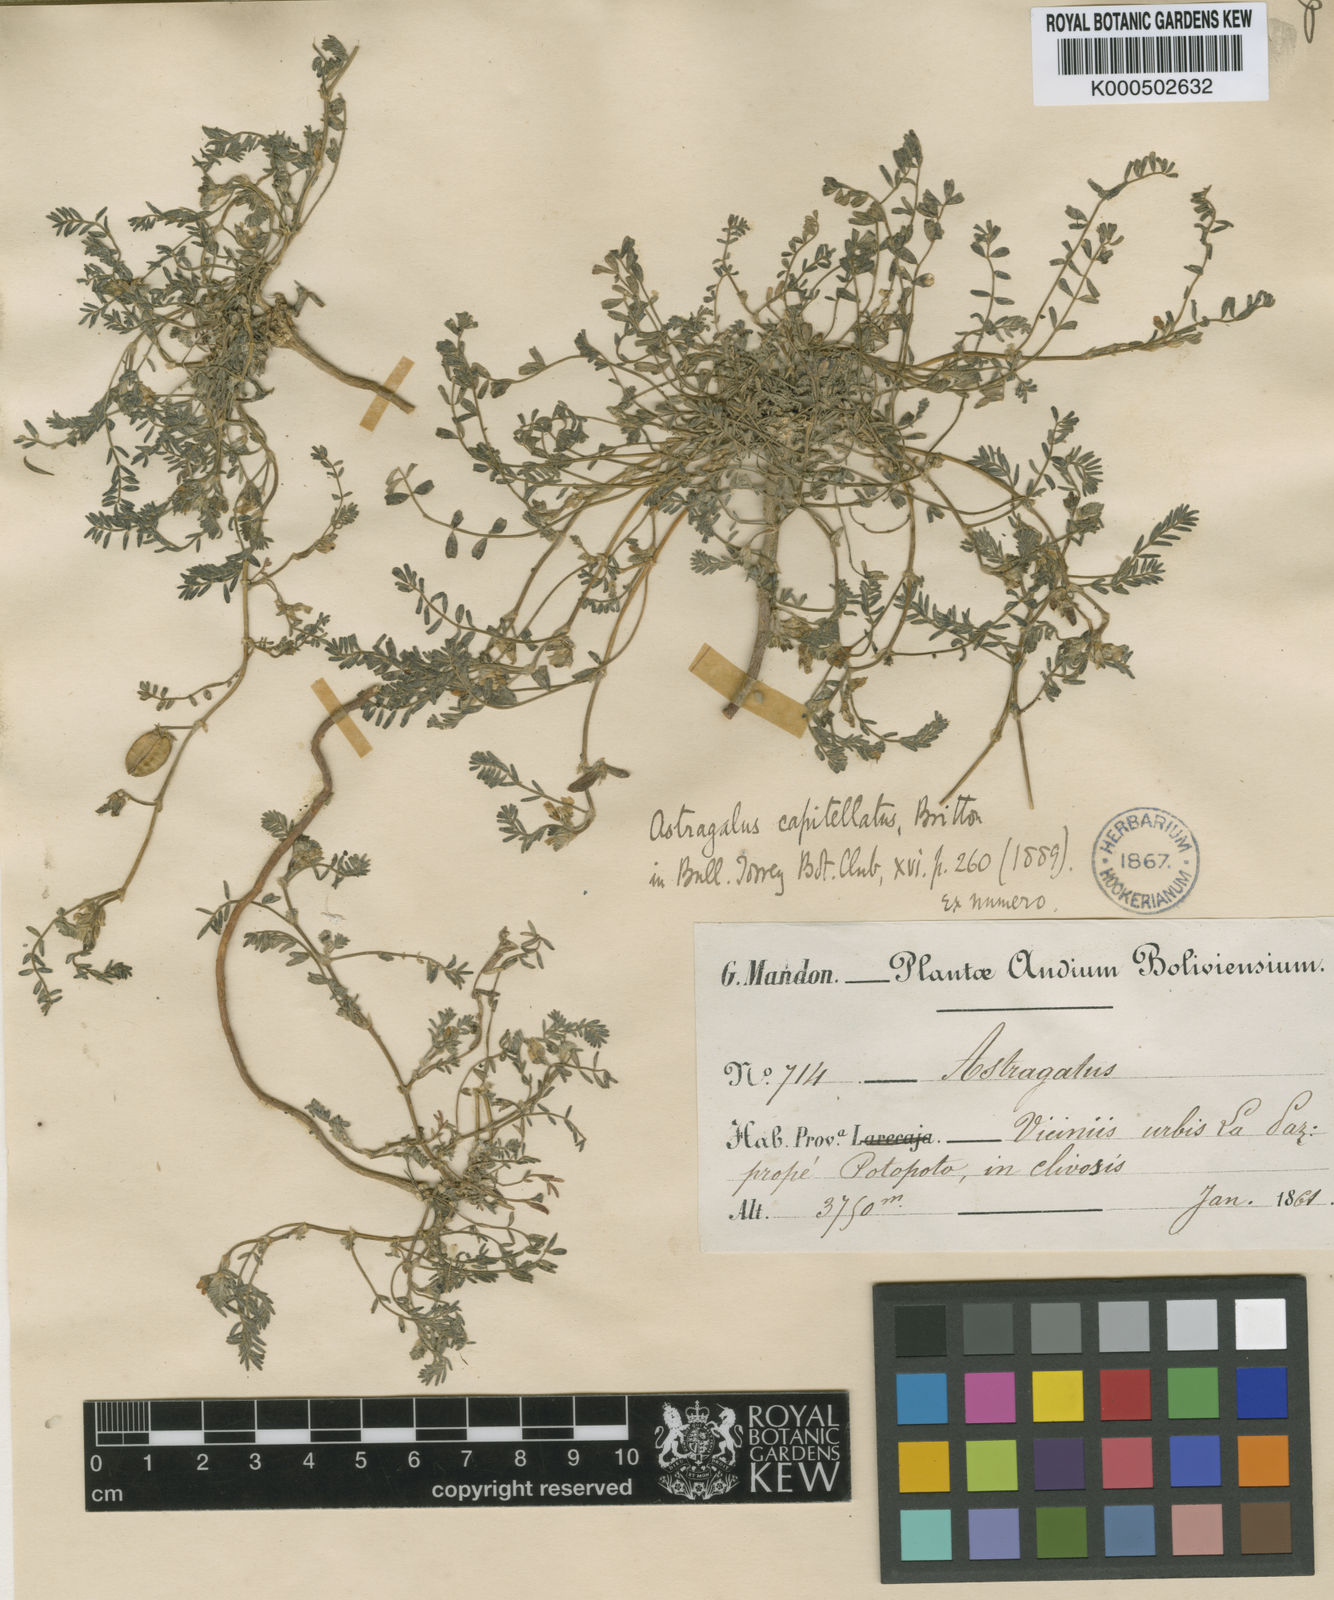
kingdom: Plantae
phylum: Tracheophyta
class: Magnoliopsida
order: Fabales
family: Fabaceae
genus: Astragalus
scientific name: Astragalus micranthellus
